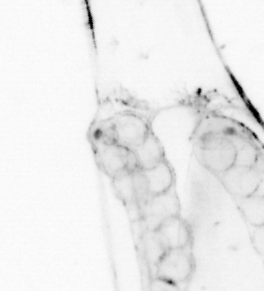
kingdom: Animalia
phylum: Chordata
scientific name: Chordata
